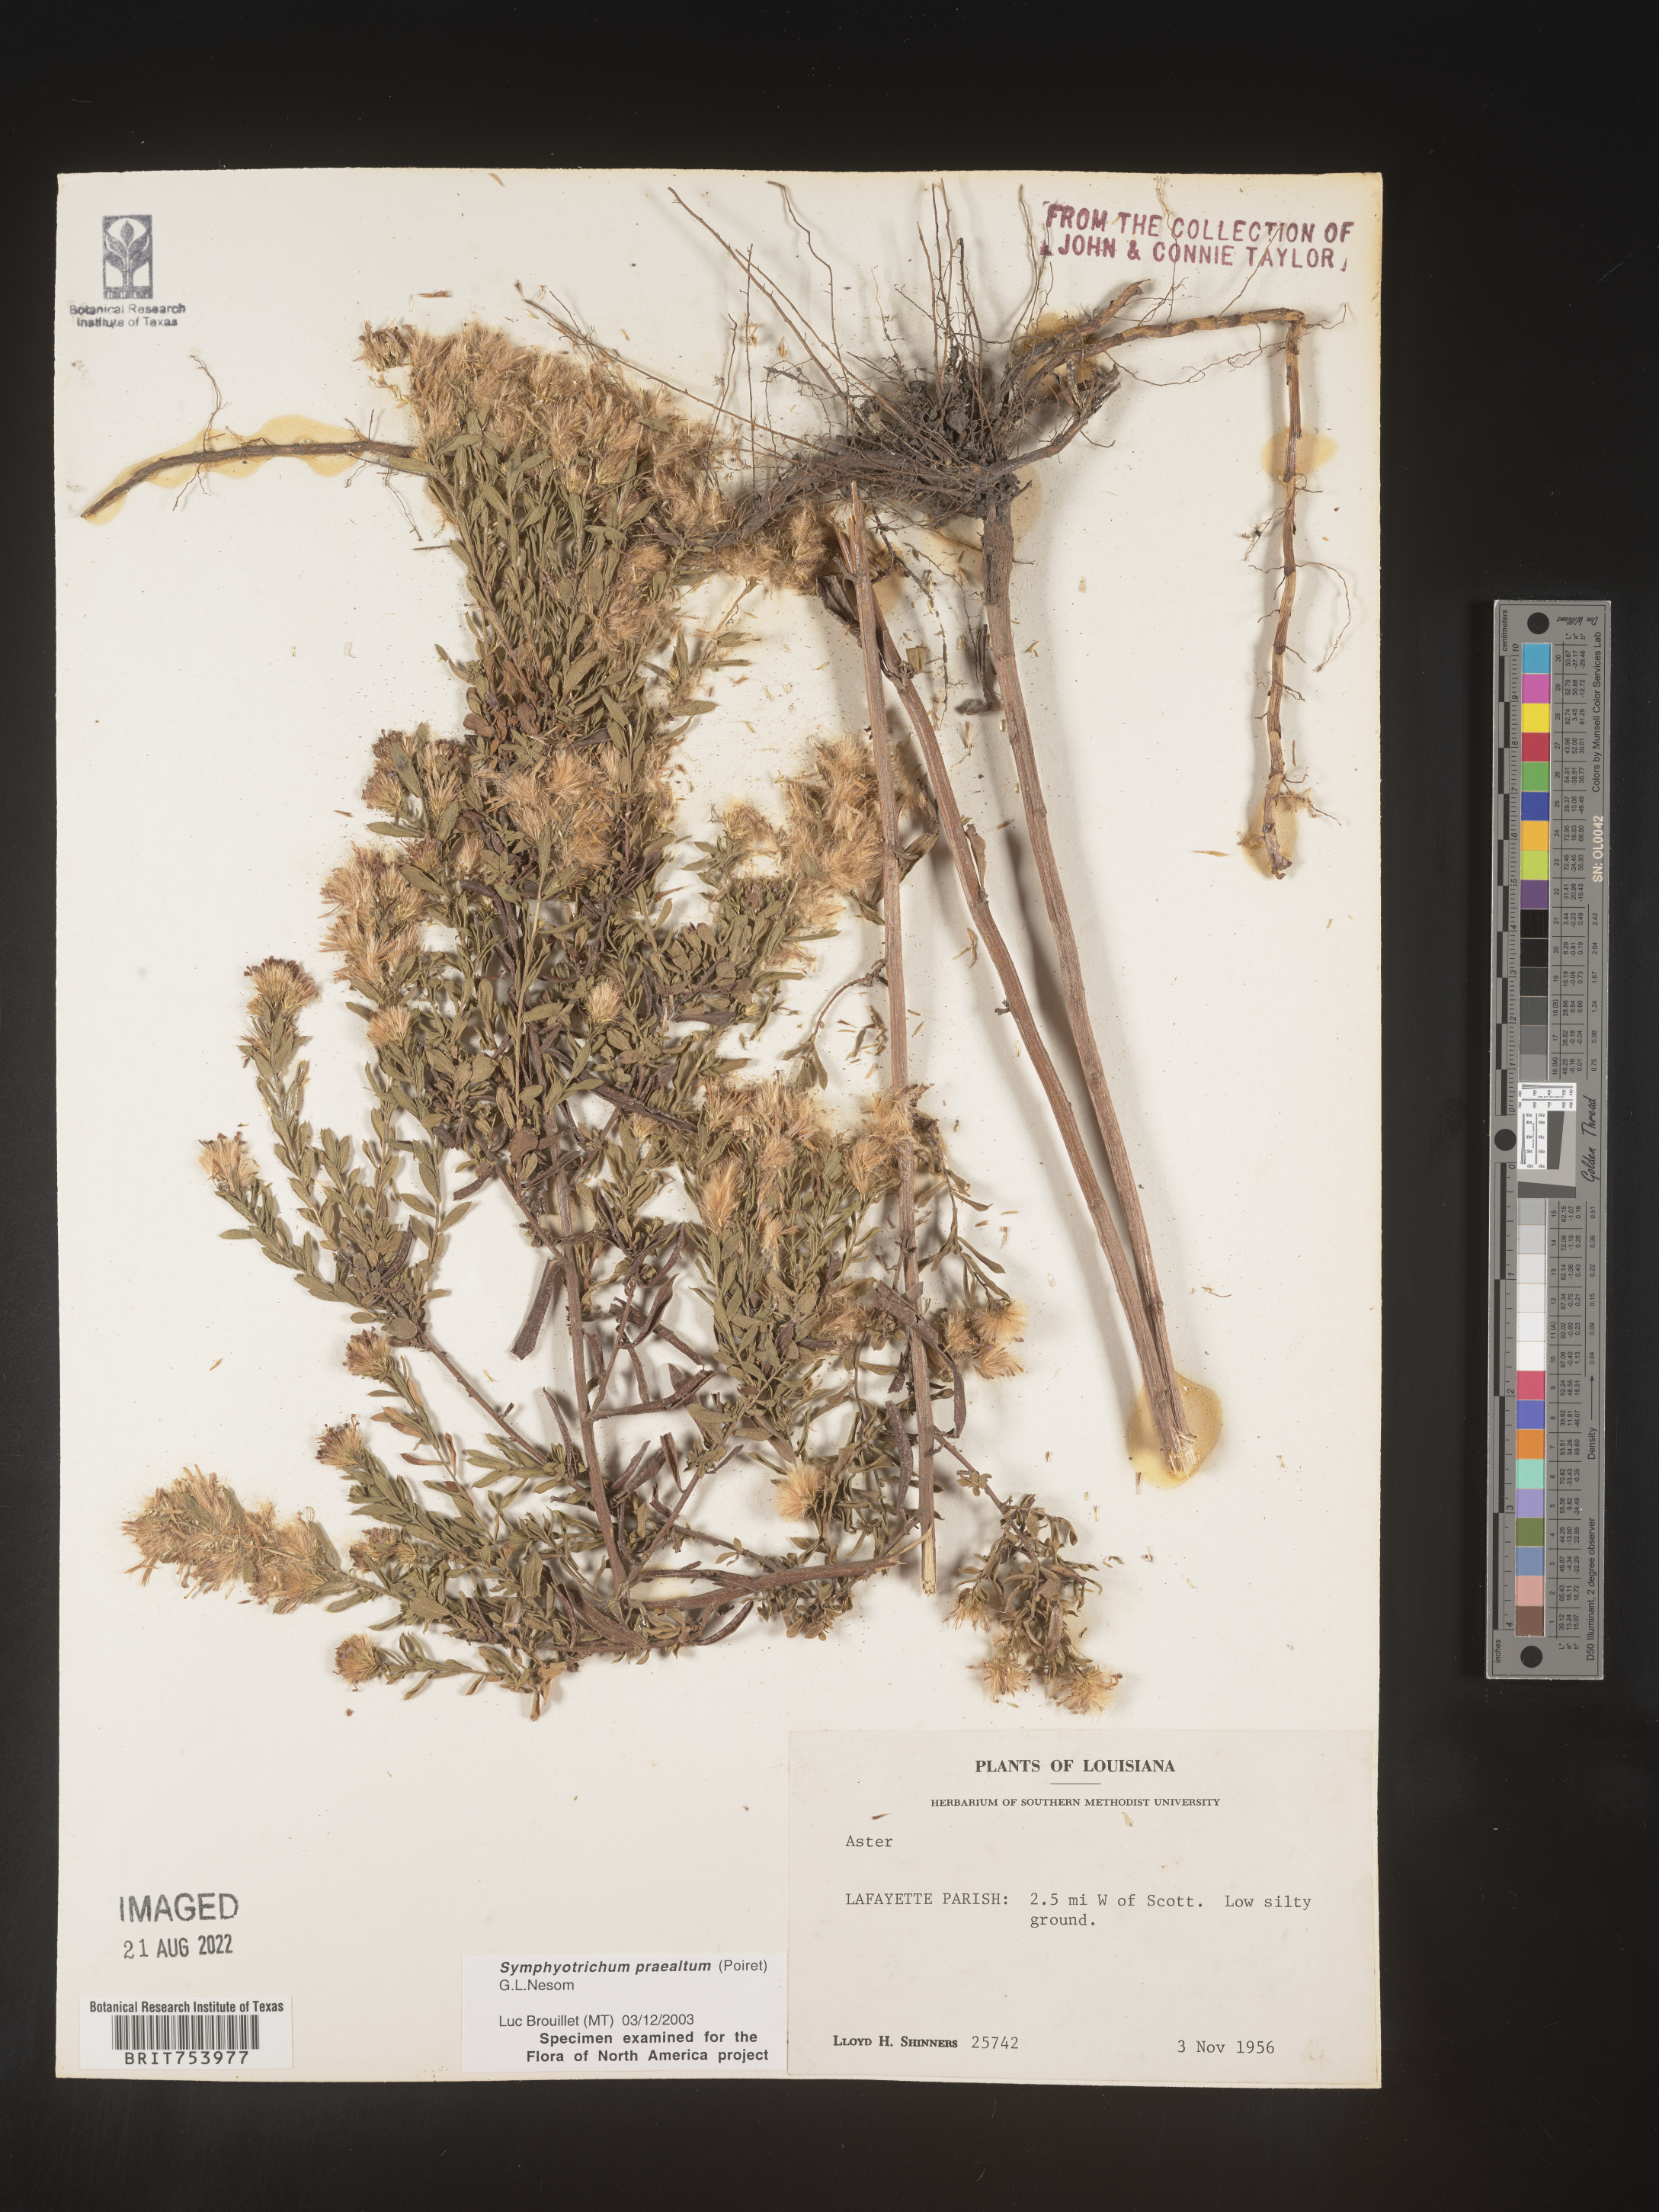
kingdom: Plantae
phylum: Tracheophyta
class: Magnoliopsida
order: Asterales
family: Asteraceae
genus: Symphyotrichum
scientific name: Symphyotrichum praealtum
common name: Willow aster
